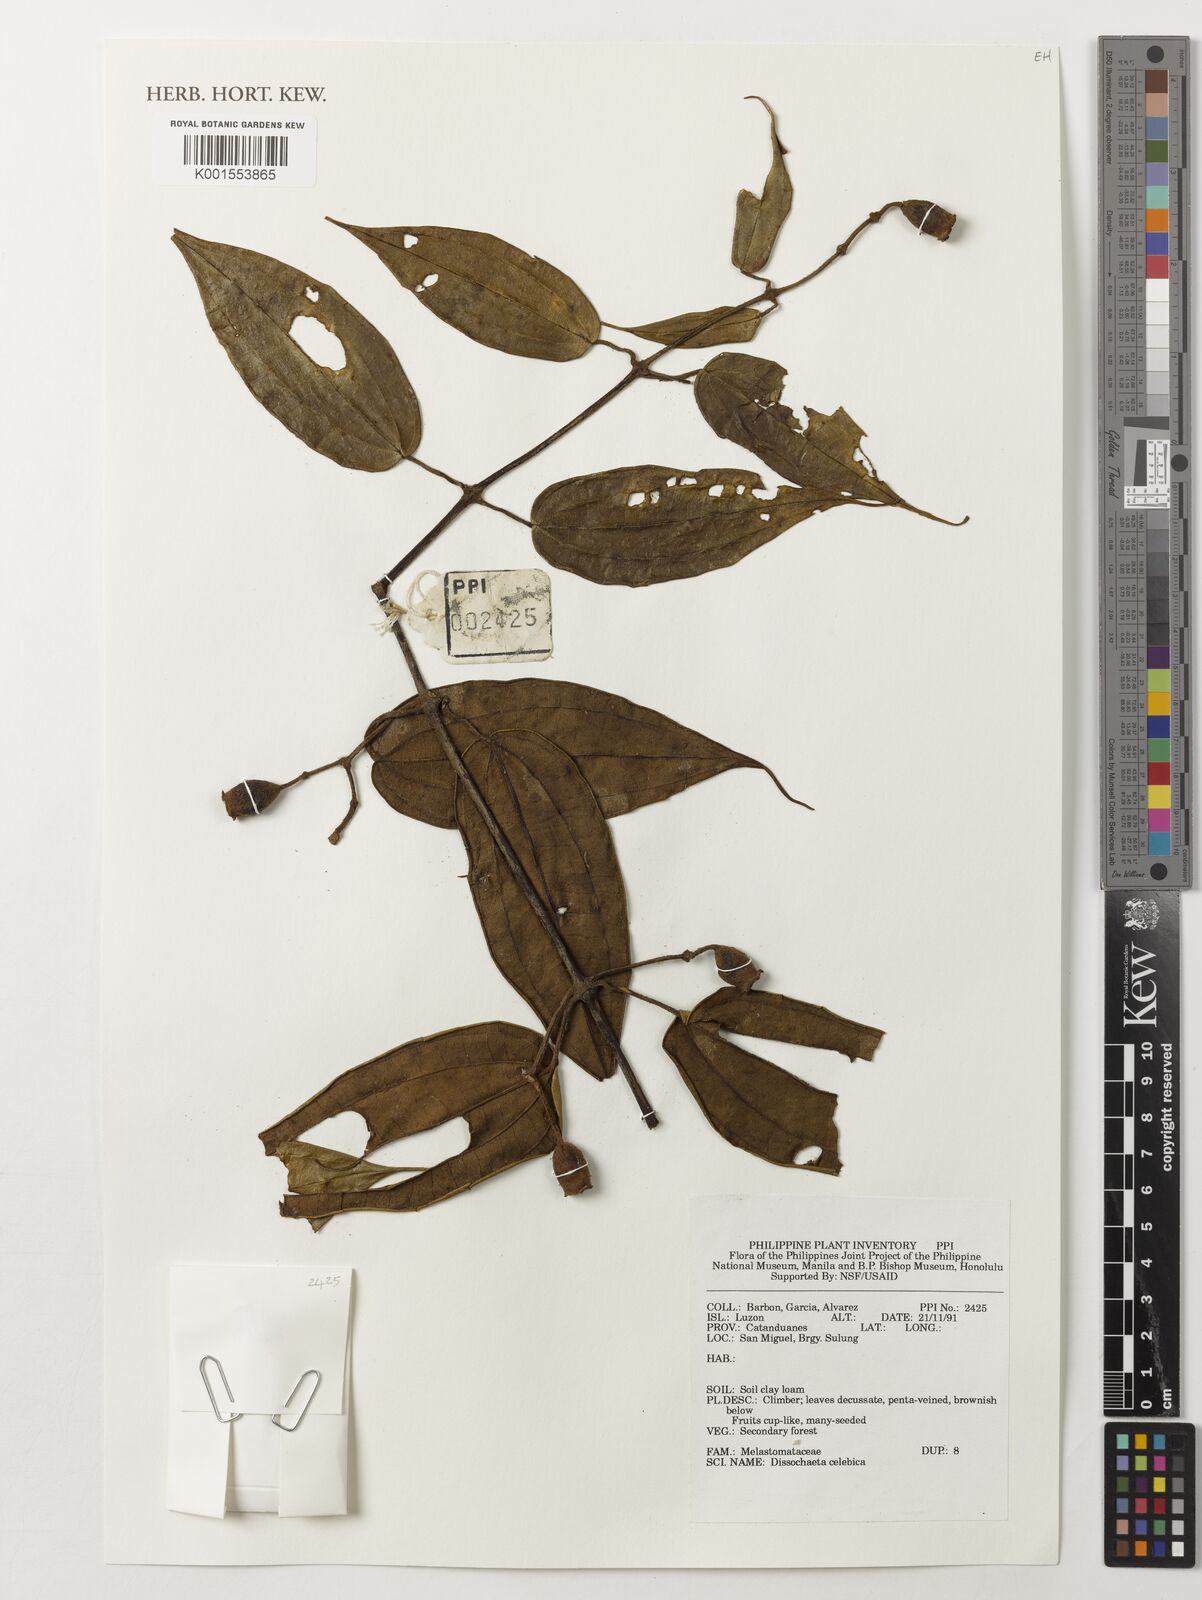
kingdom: Plantae
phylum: Tracheophyta
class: Magnoliopsida
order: Myrtales
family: Melastomataceae
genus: Dissochaeta
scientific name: Dissochaeta celebica
